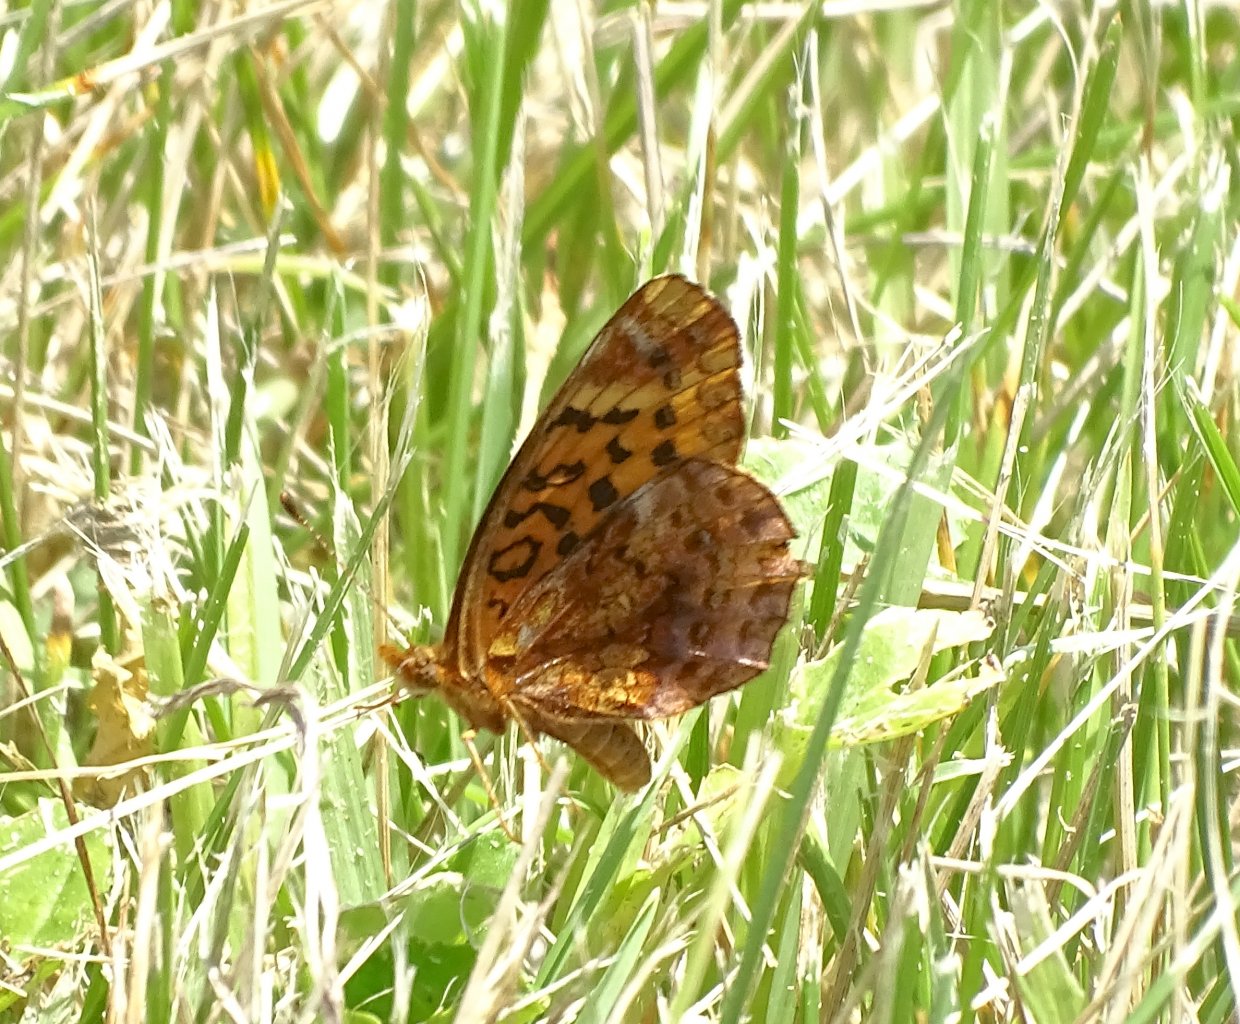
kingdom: Animalia
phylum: Arthropoda
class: Insecta
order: Lepidoptera
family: Nymphalidae
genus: Clossiana
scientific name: Clossiana toddi
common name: Meadow Fritillary
